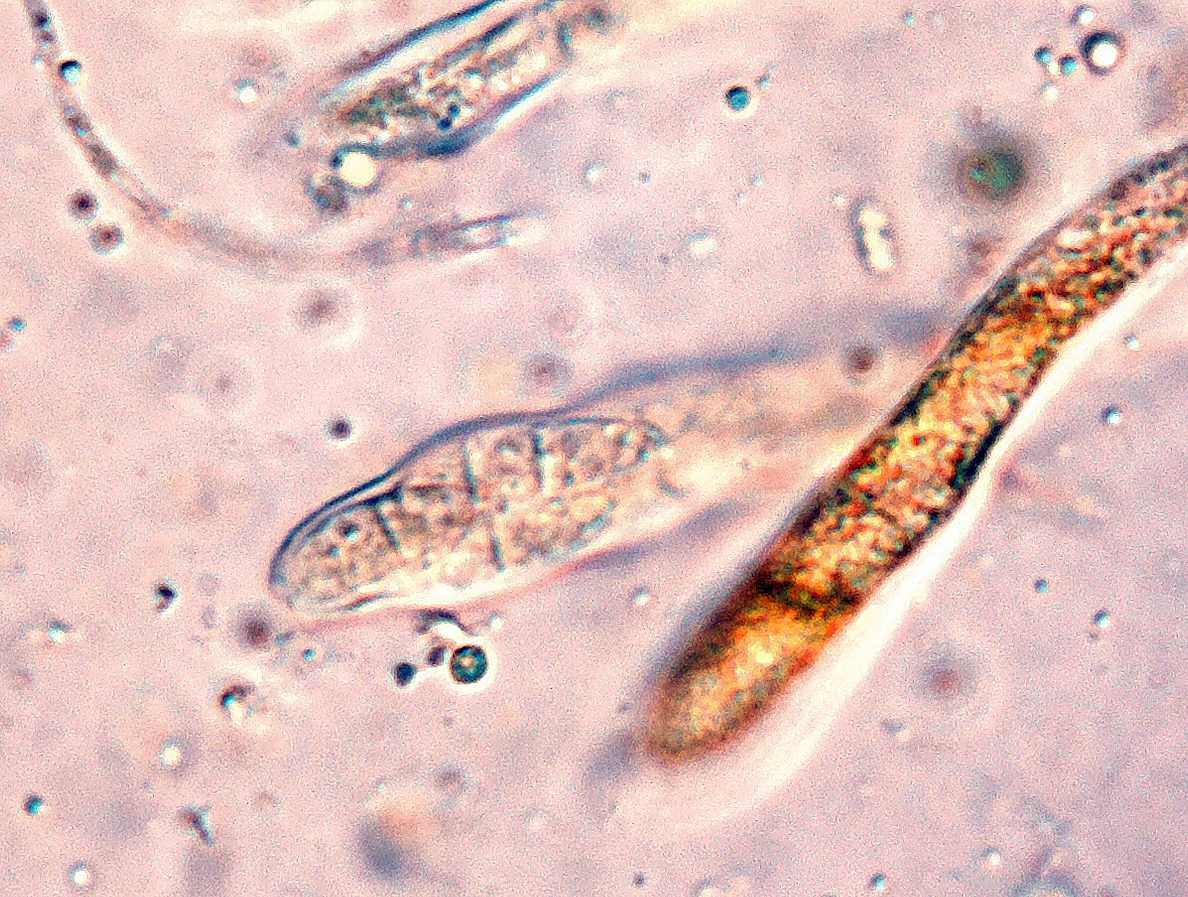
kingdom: Fungi
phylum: Ascomycota
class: Leotiomycetes
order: Helotiales
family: Helotiaceae
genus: Durella
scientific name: Durella macrospora
